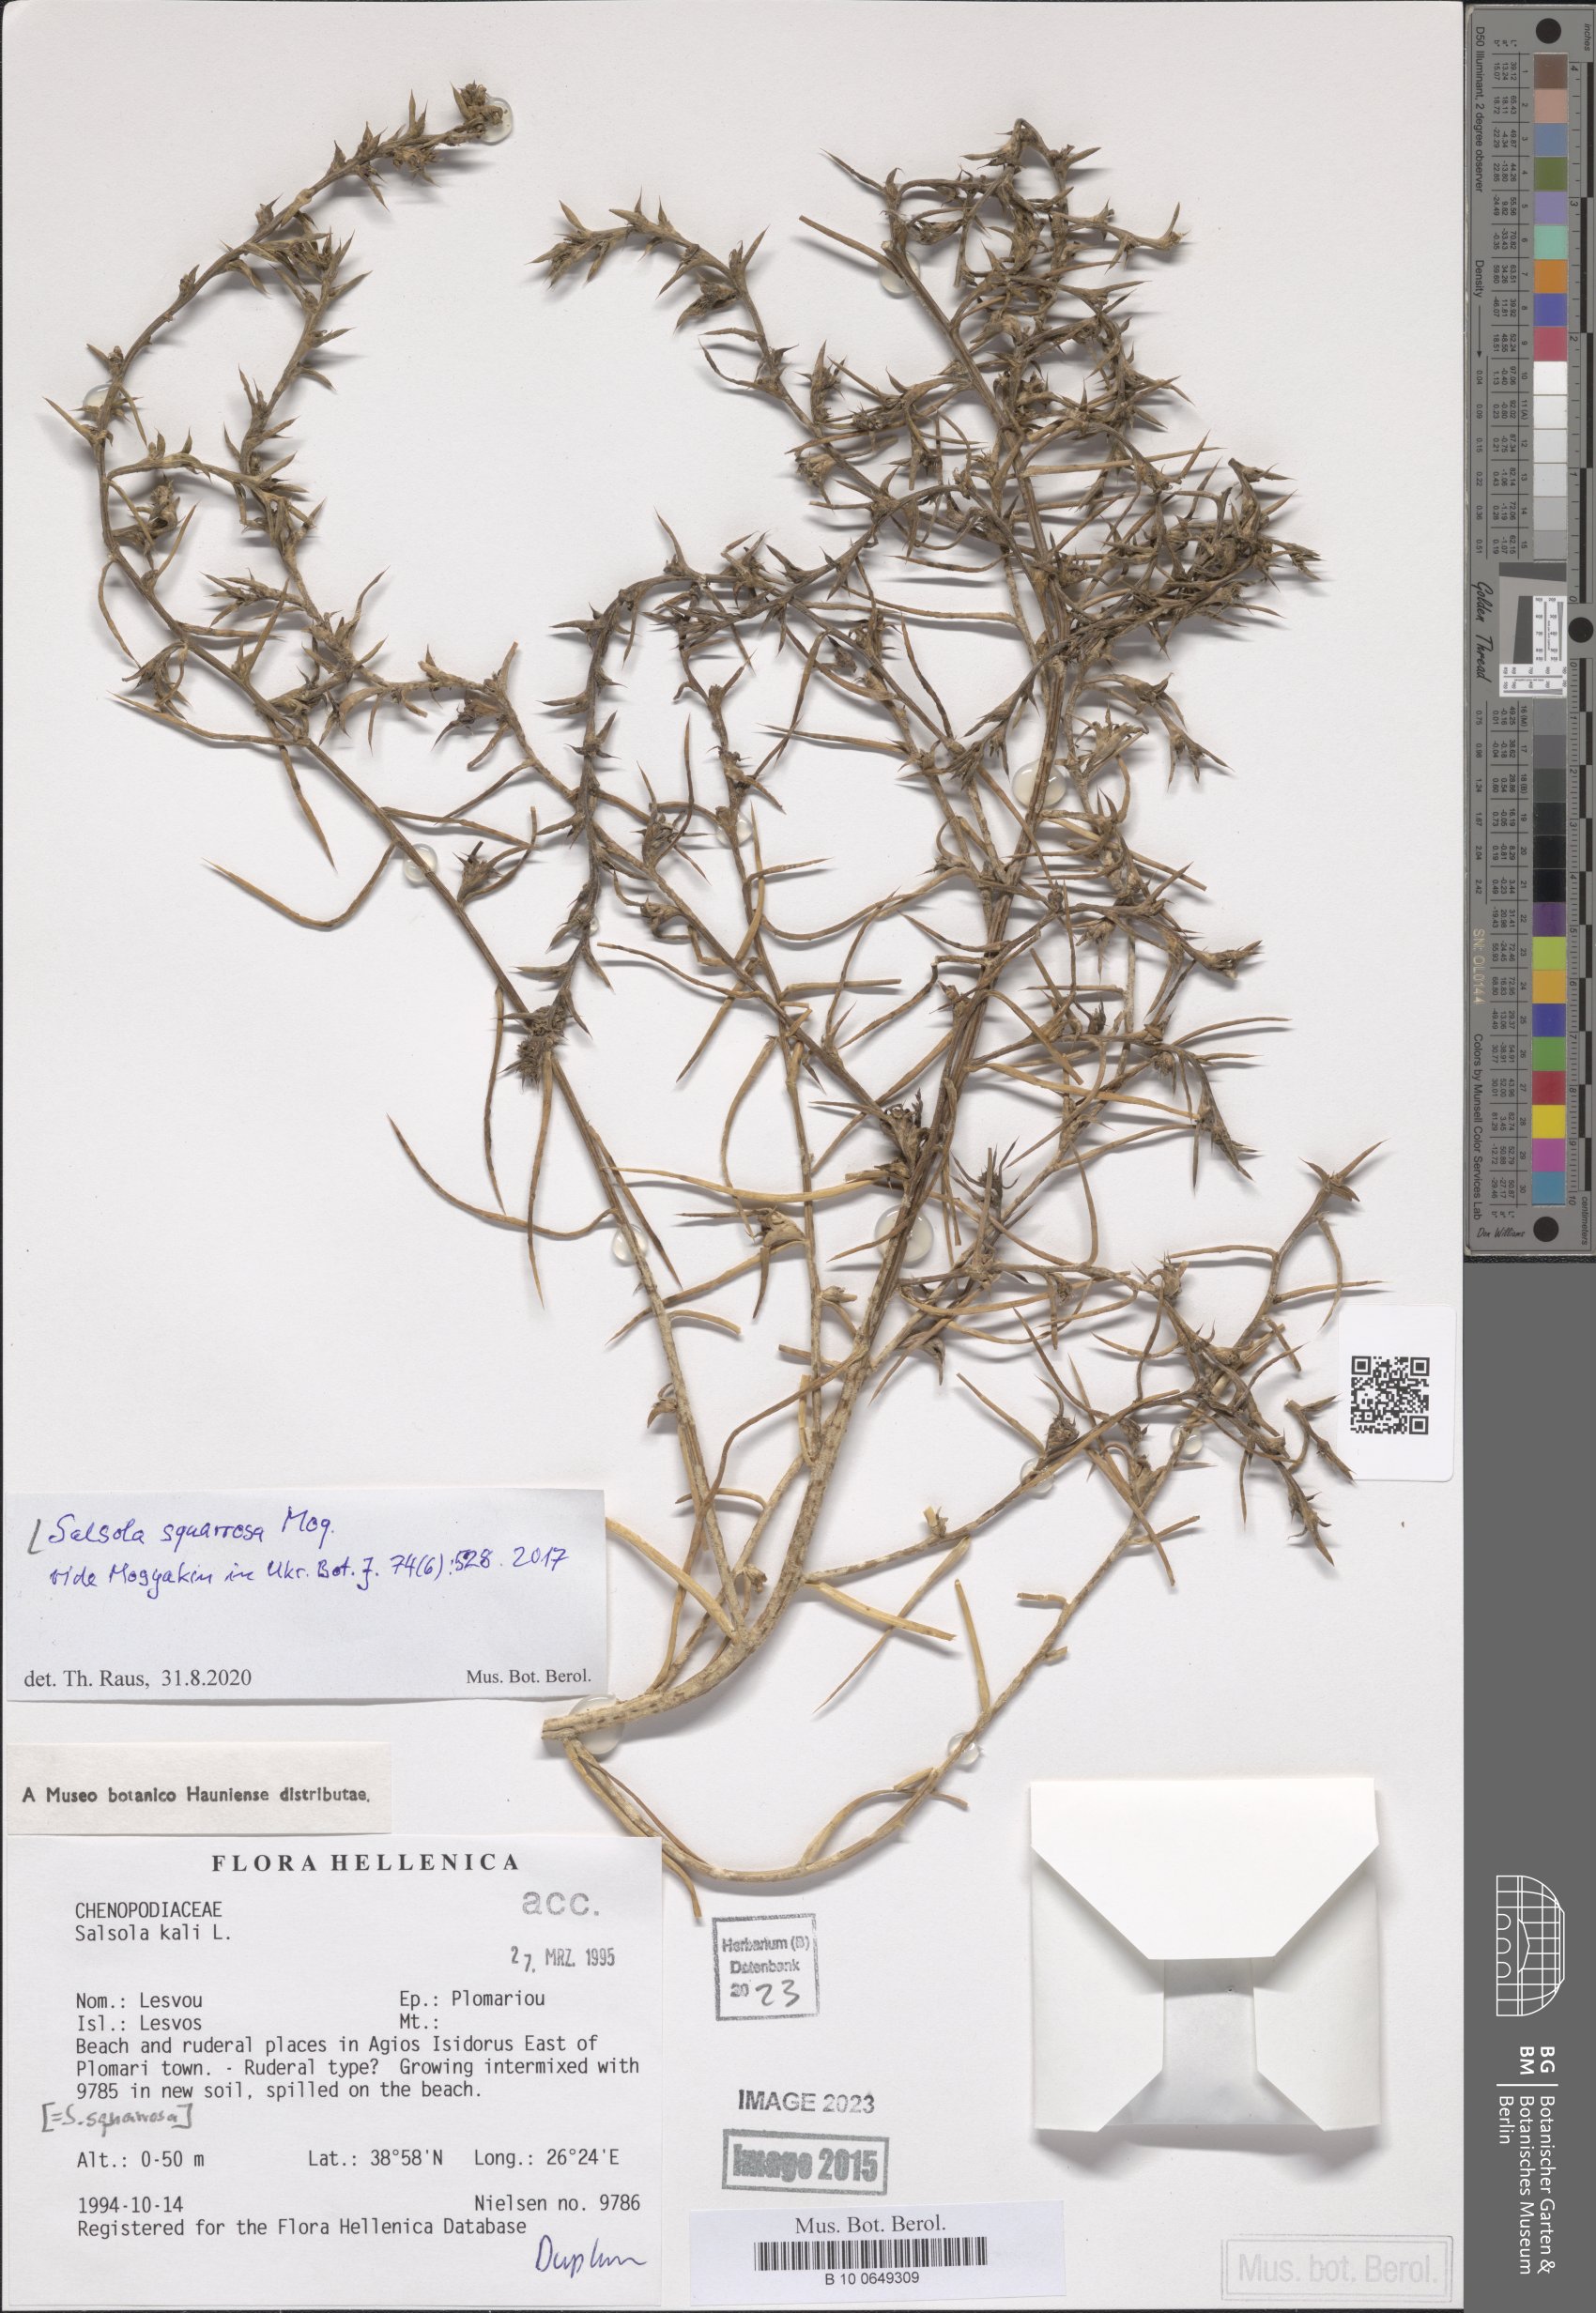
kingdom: Plantae
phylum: Tracheophyta
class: Magnoliopsida
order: Caryophyllales
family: Amaranthaceae
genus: Salsola
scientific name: Salsola squarrosa
